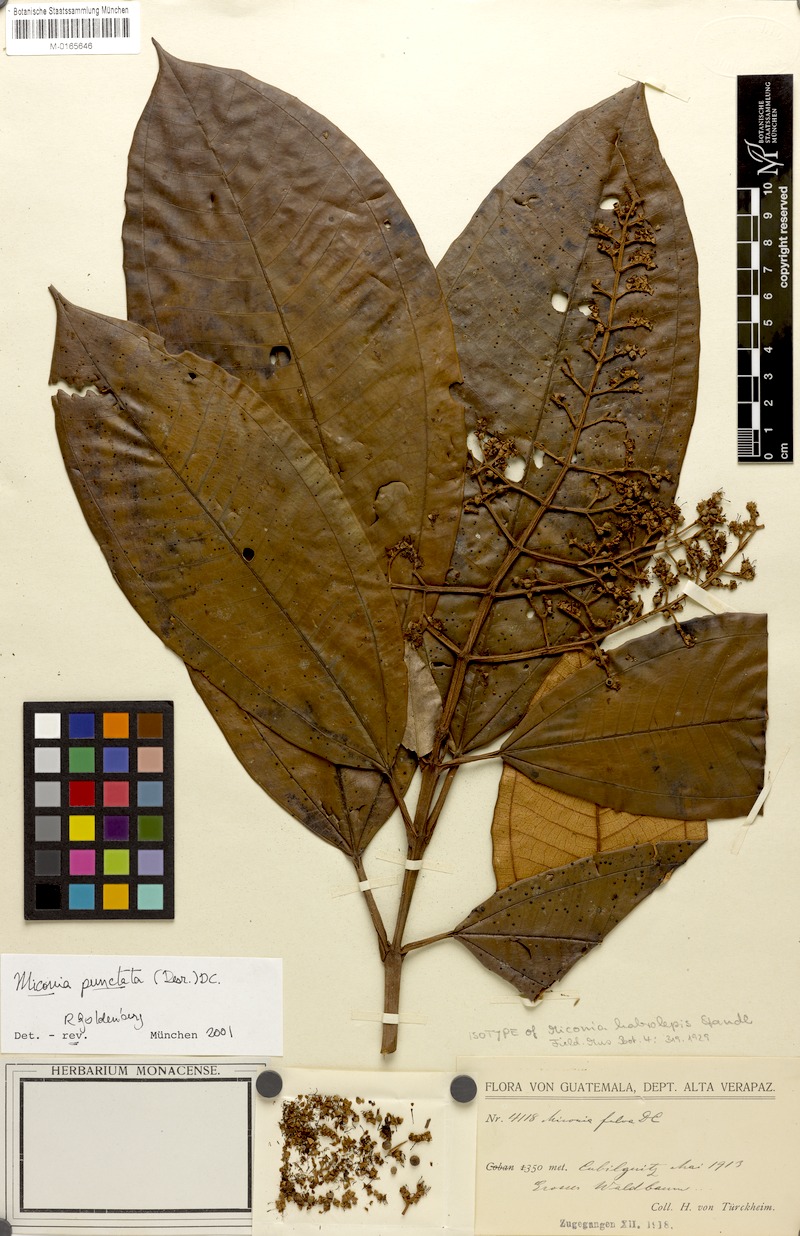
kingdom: Plantae
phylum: Tracheophyta
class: Magnoliopsida
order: Myrtales
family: Melastomataceae
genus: Miconia
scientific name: Miconia punctata
